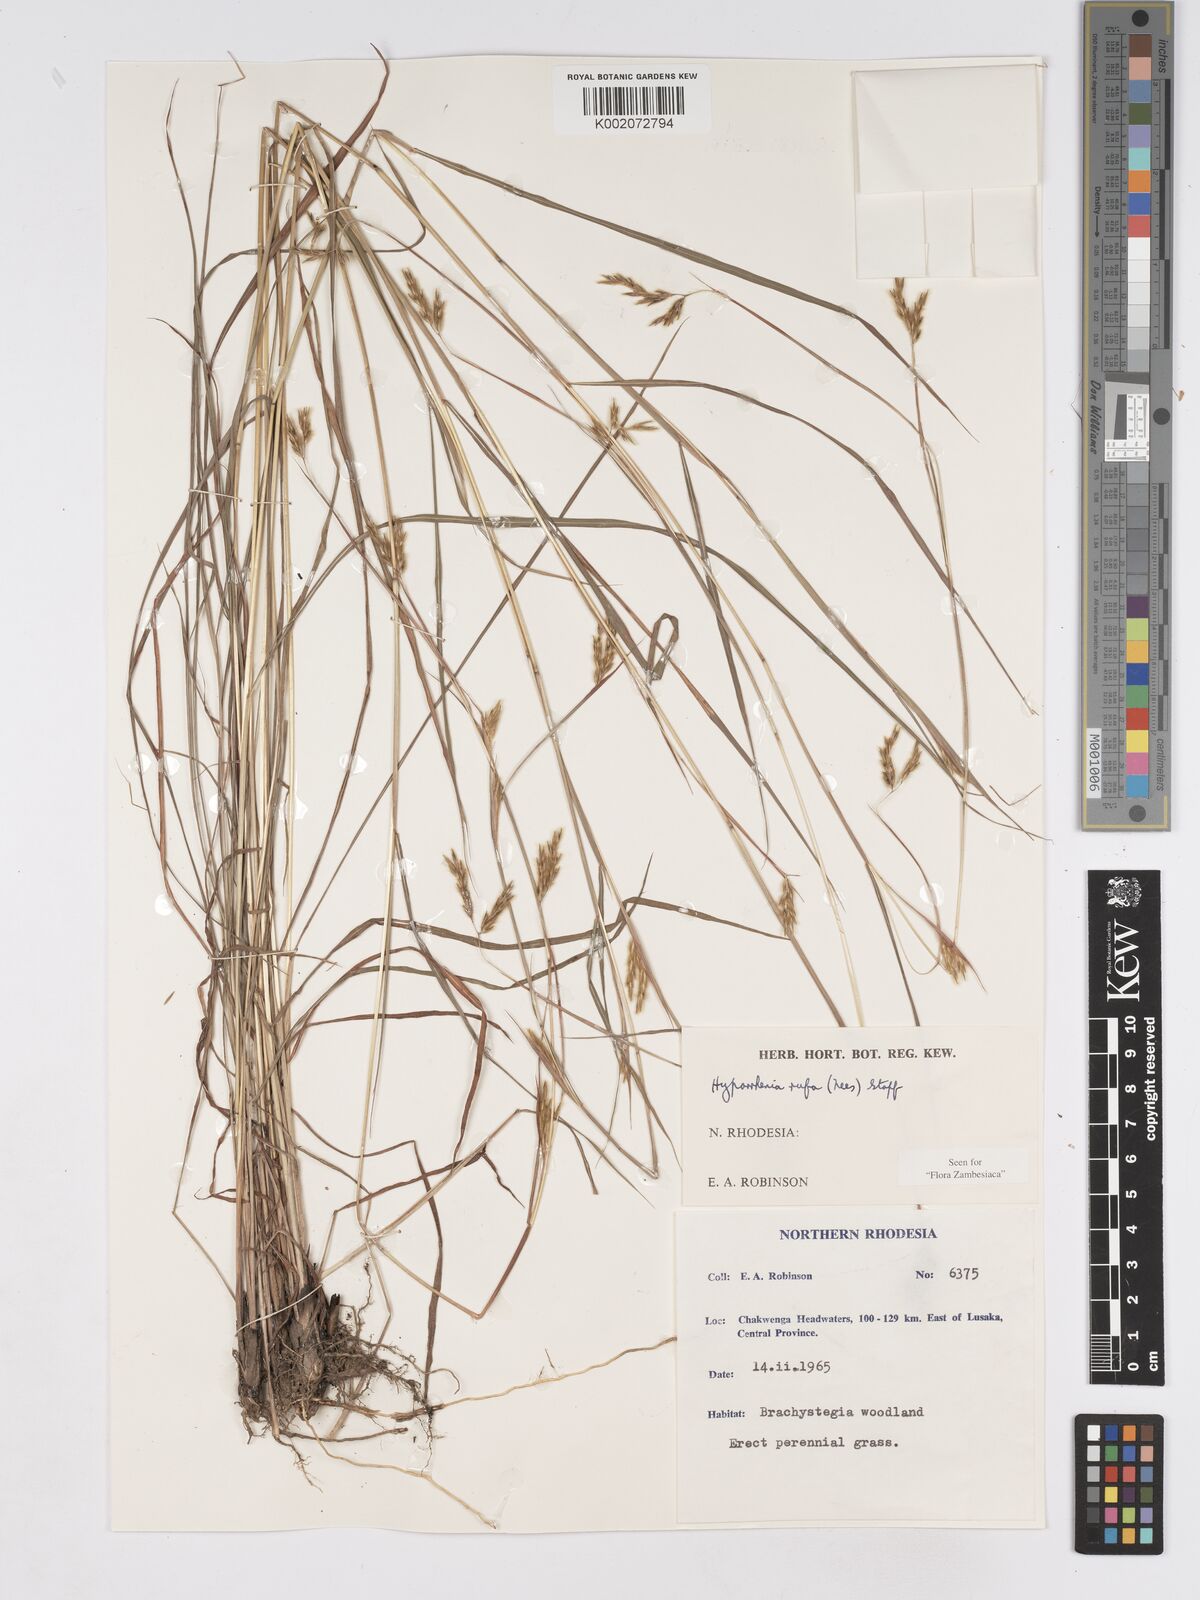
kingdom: Plantae
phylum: Tracheophyta
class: Liliopsida
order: Poales
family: Poaceae
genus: Hyparrhenia
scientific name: Hyparrhenia rufa
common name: Jaraguagrass
